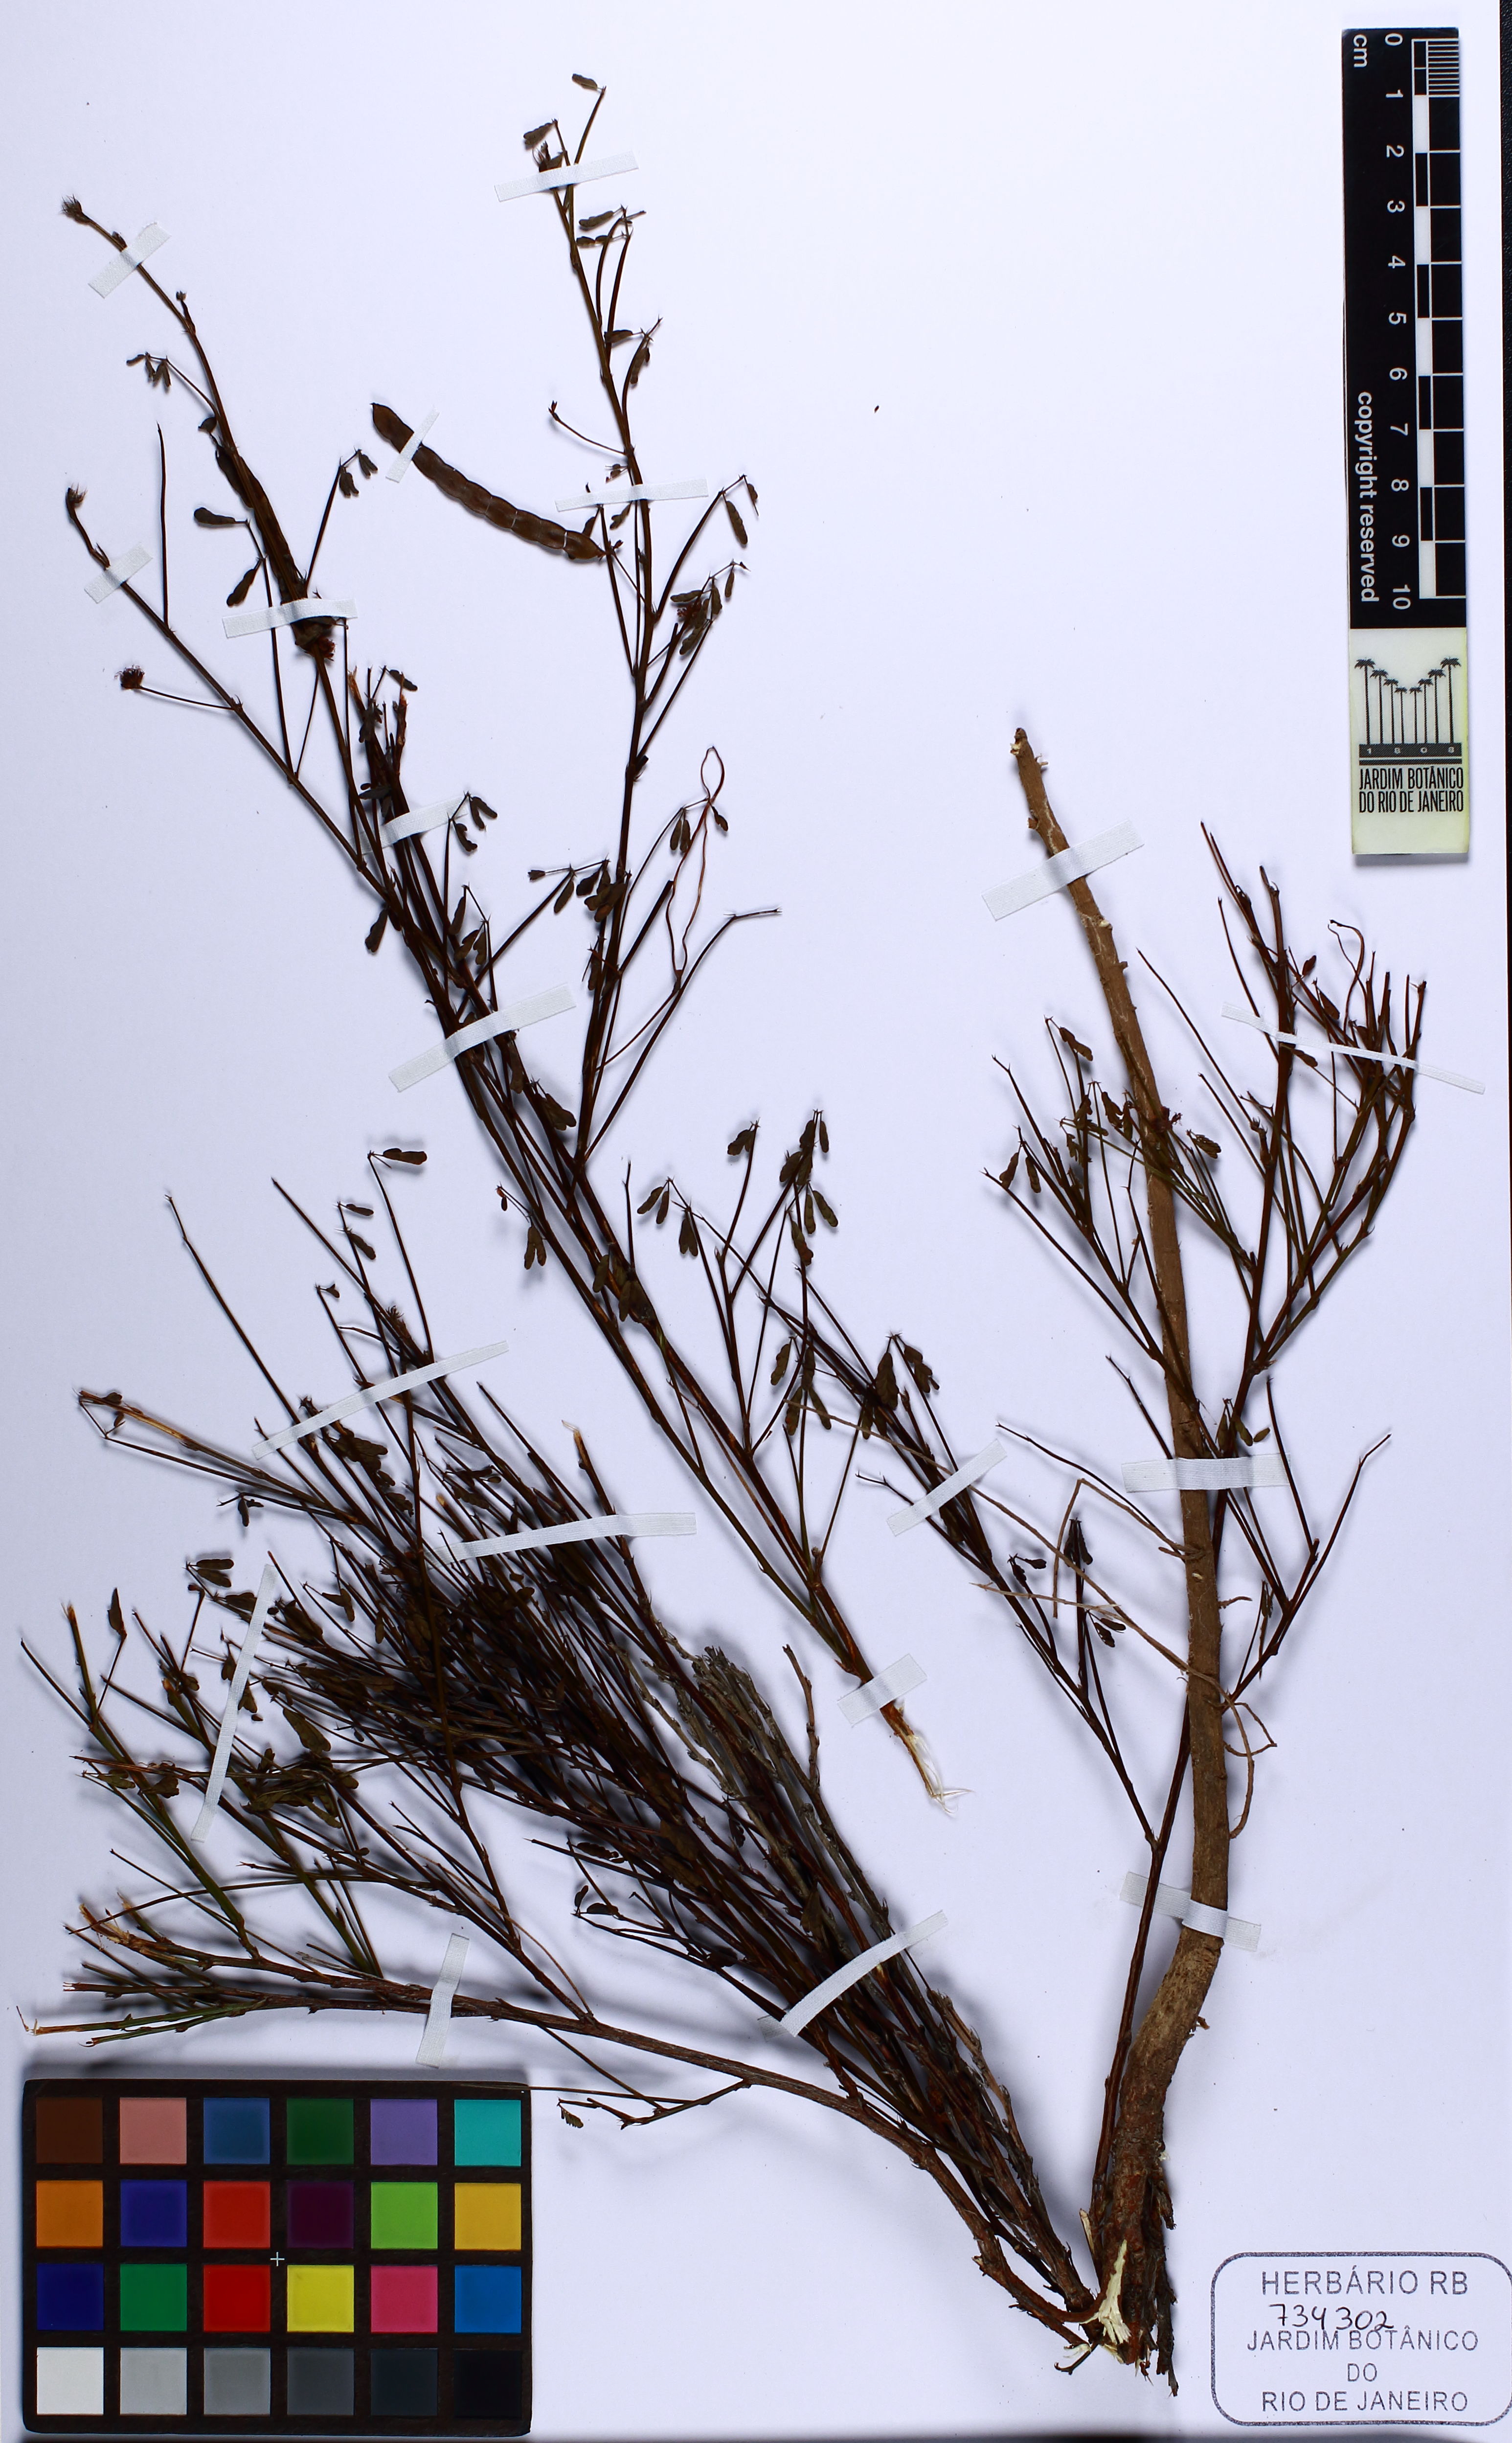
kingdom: Plantae
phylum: Tracheophyta
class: Magnoliopsida
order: Fabales
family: Fabaceae
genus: Mimosa
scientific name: Mimosa campicola
